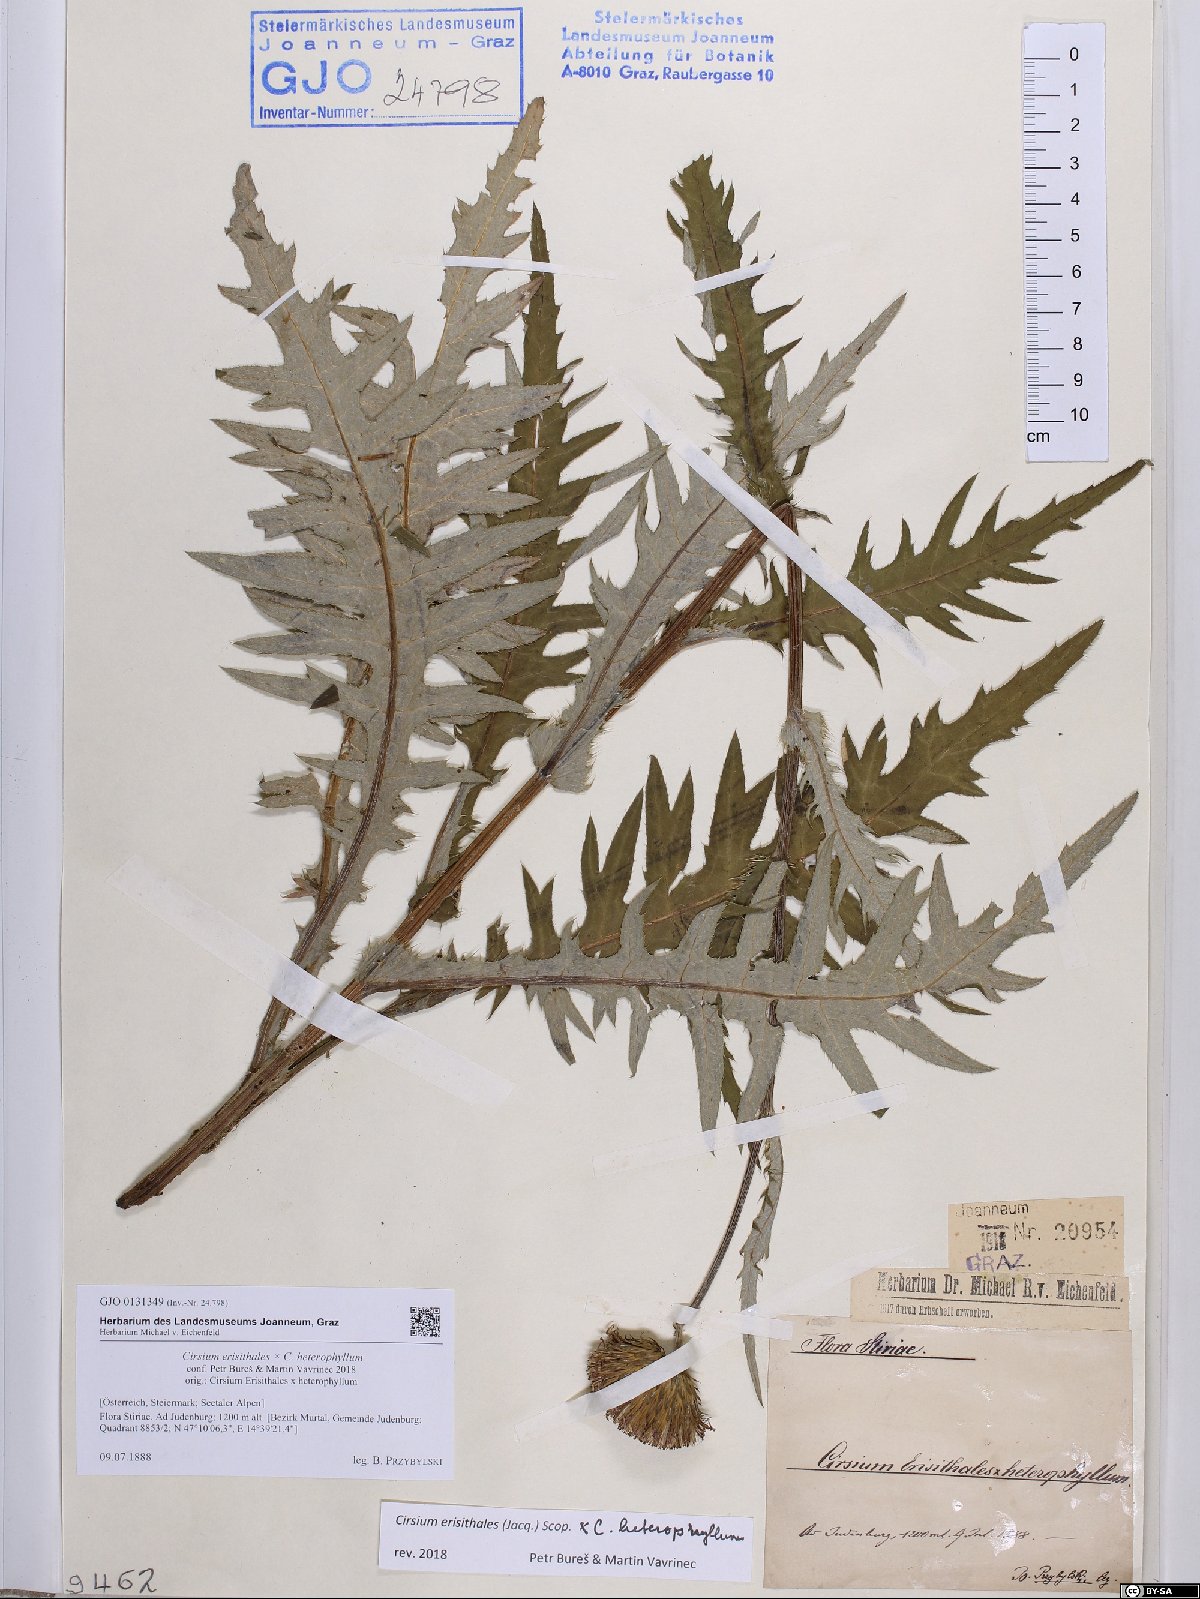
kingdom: Plantae
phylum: Tracheophyta
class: Magnoliopsida
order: Asterales
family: Asteraceae
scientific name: Asteraceae
